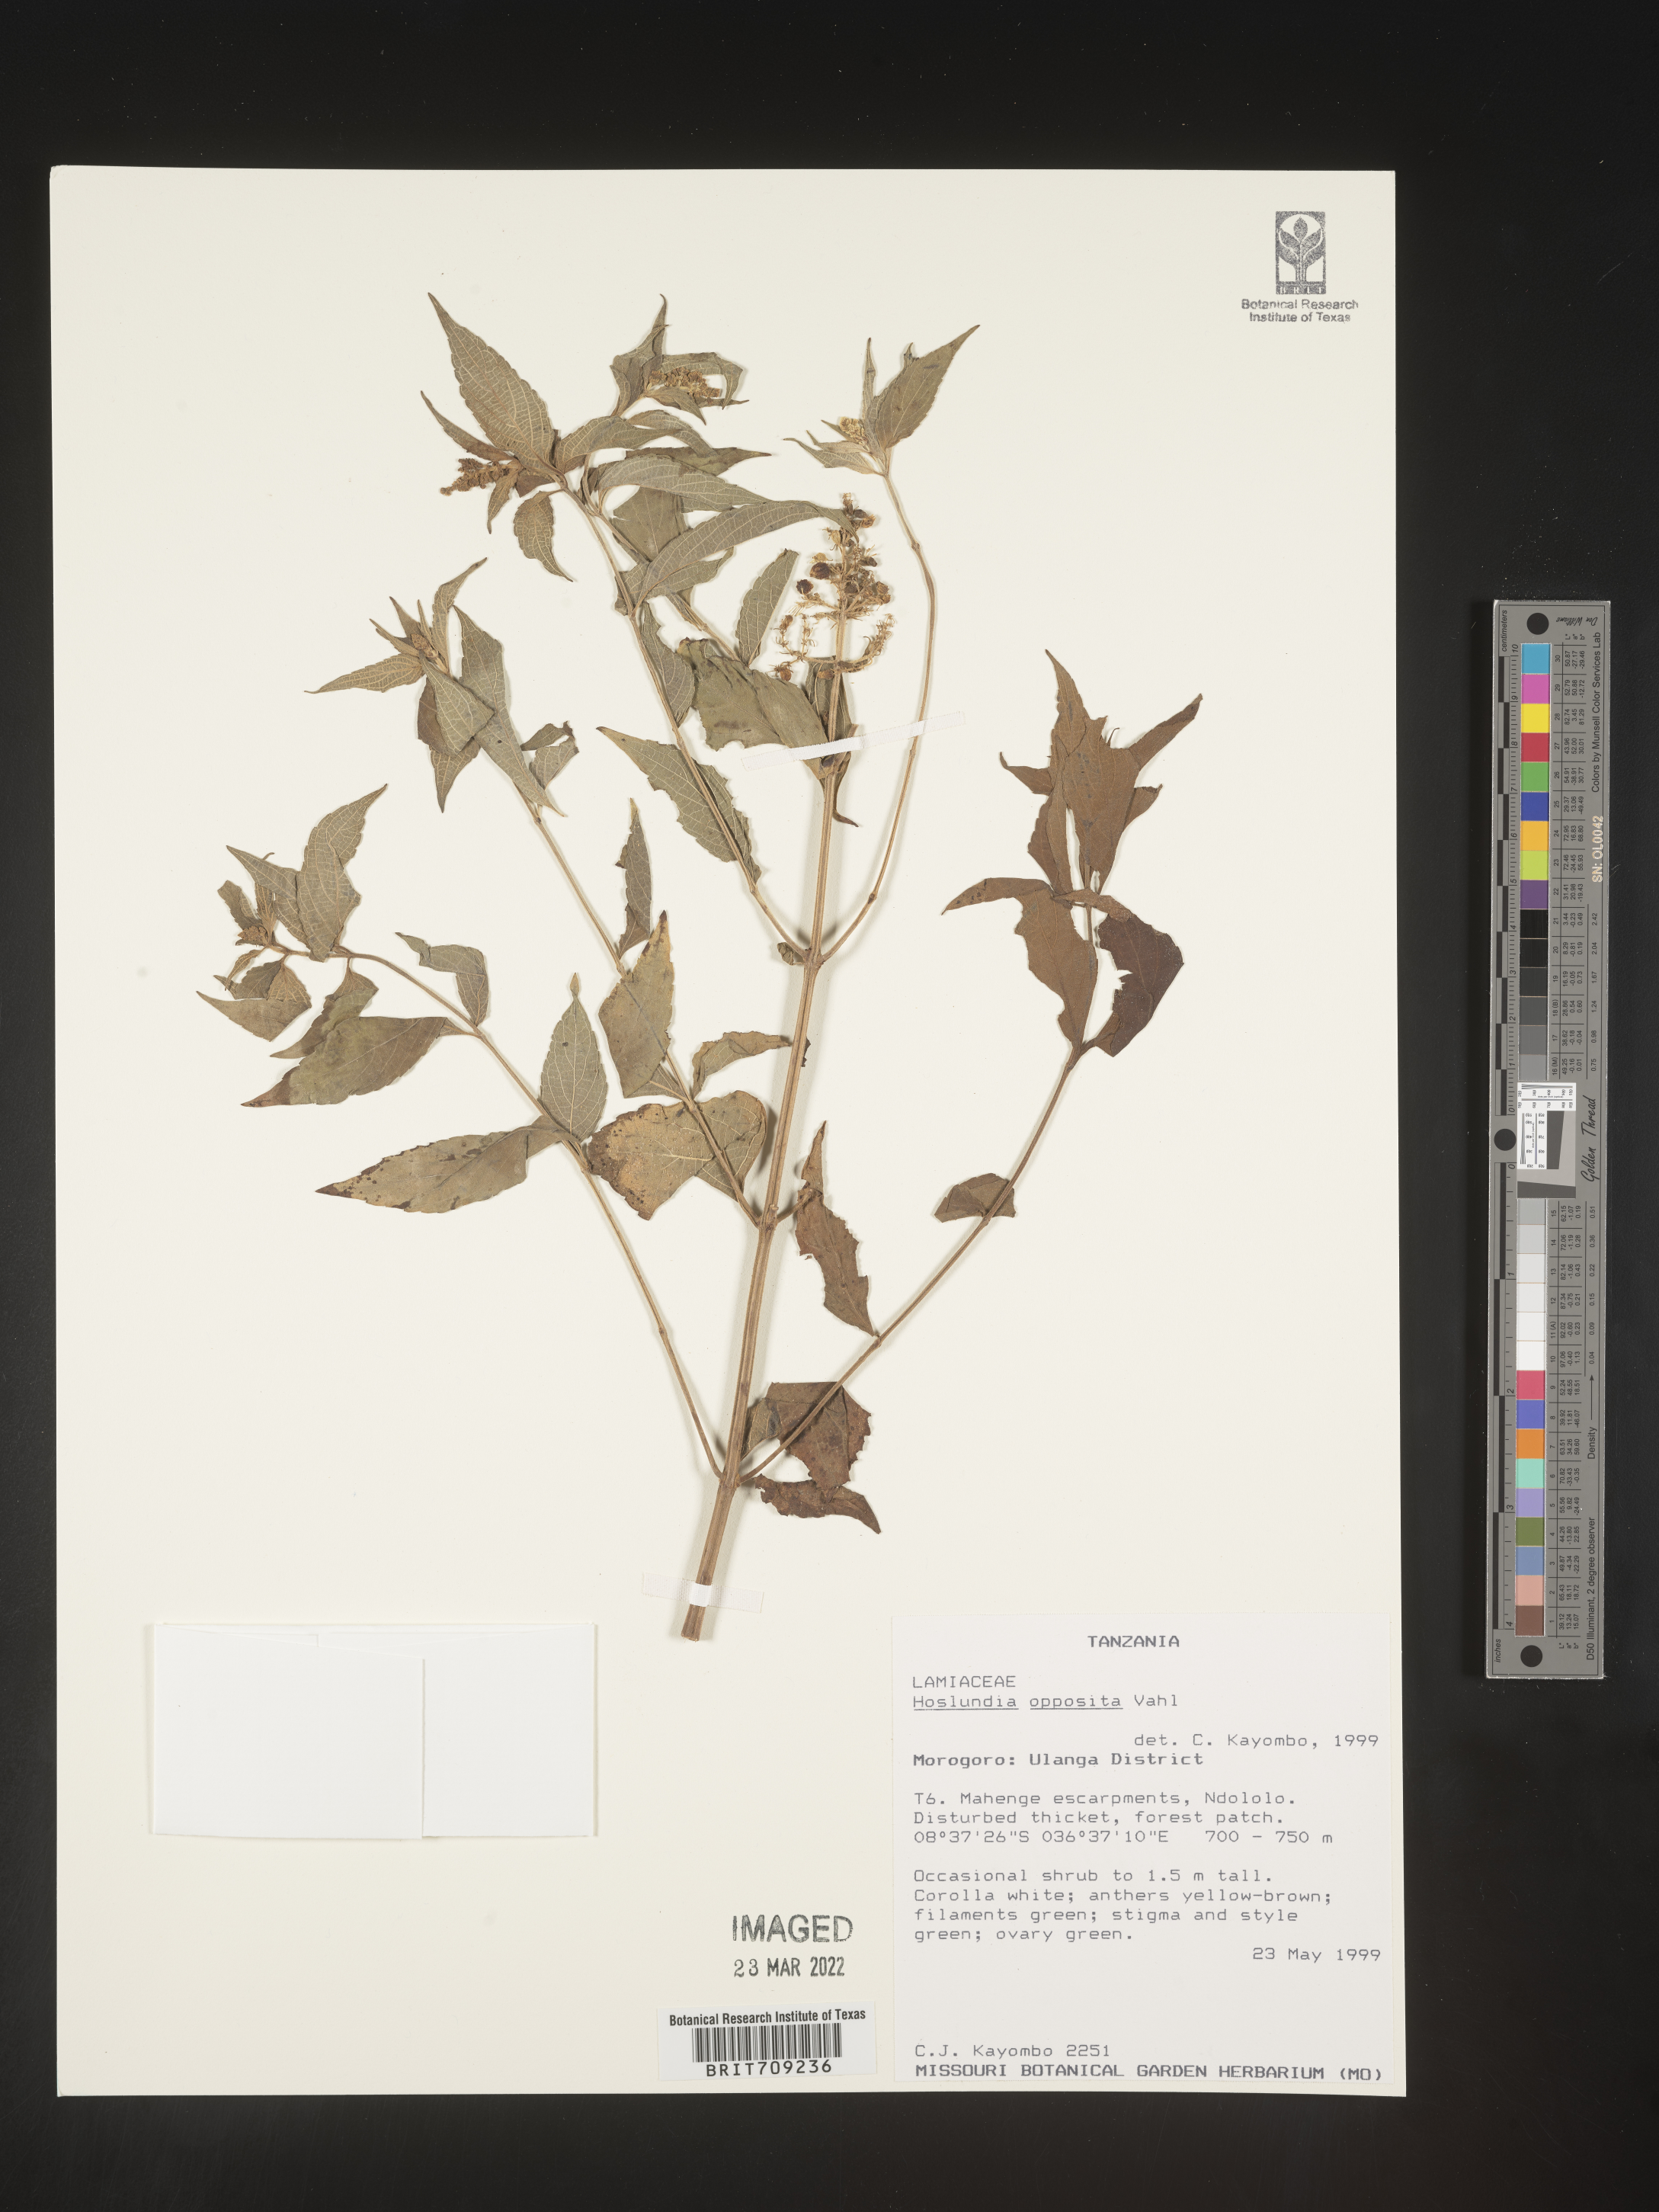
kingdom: Plantae
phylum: Tracheophyta
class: Magnoliopsida
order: Lamiales
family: Lamiaceae
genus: Hoslundia
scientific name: Hoslundia opposita
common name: Kamyuye
